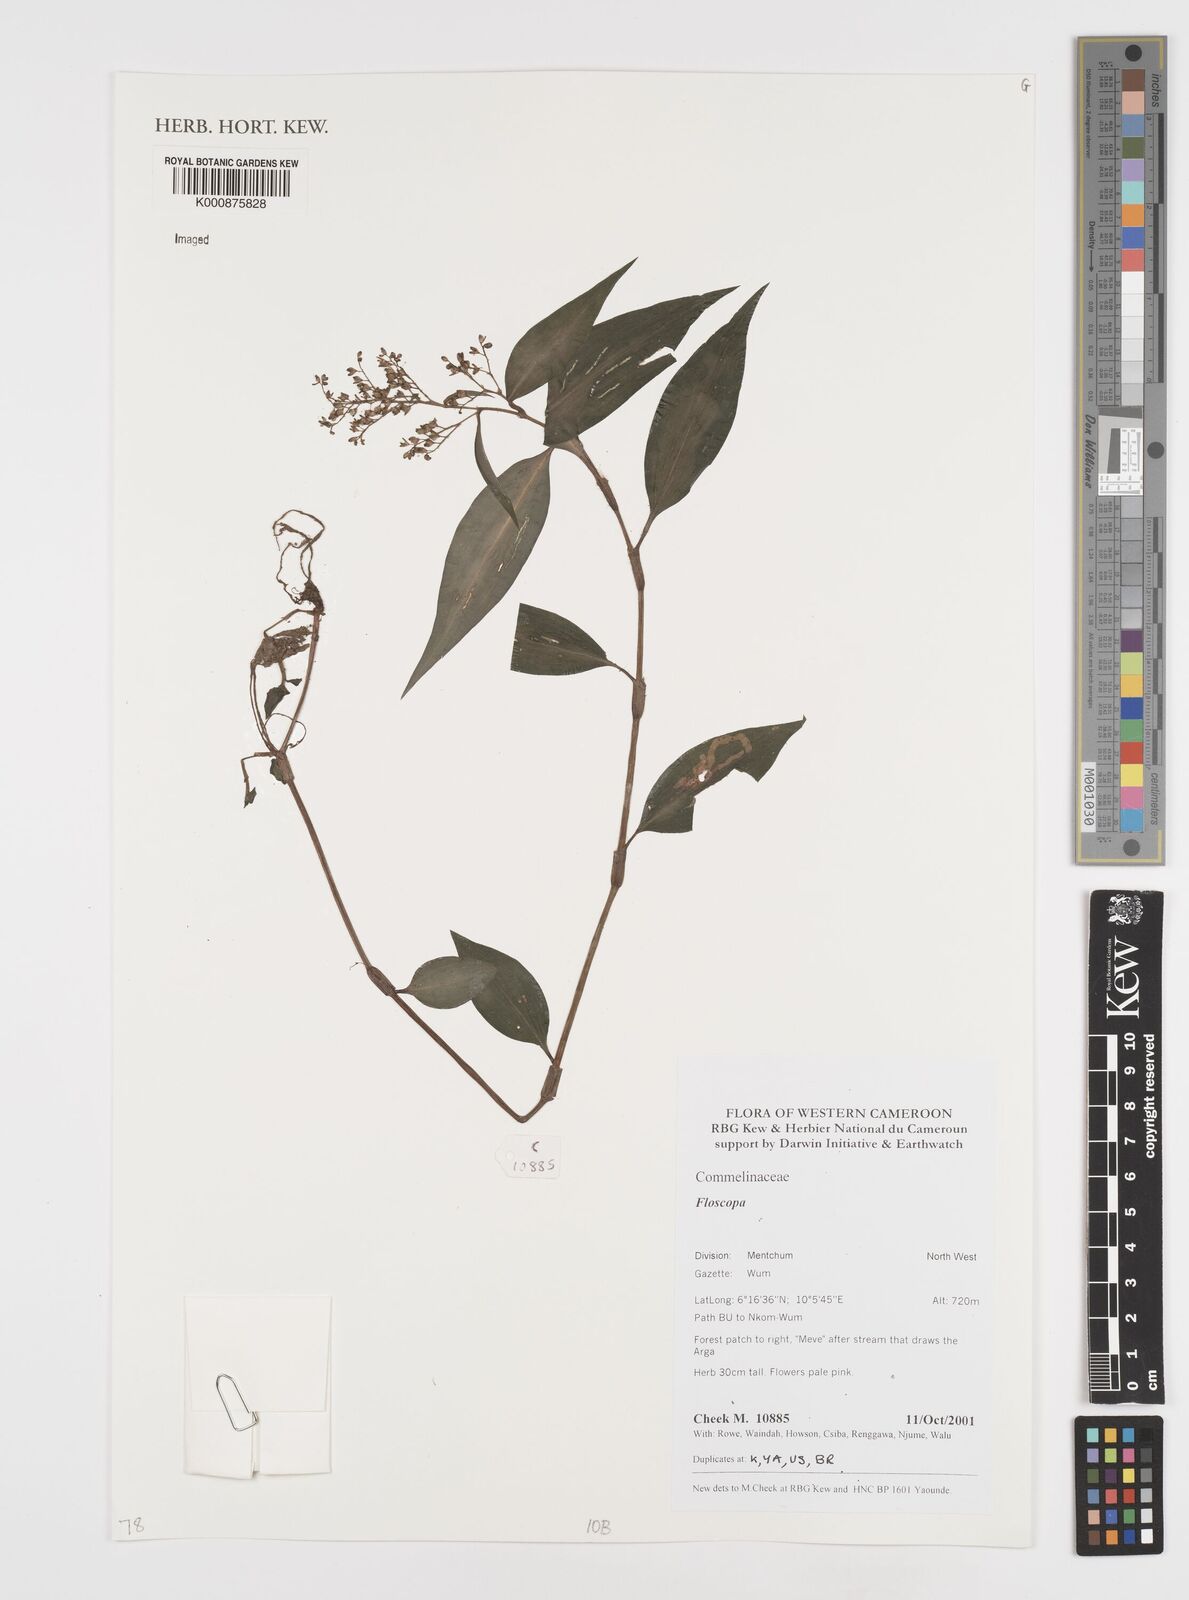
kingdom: Plantae
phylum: Tracheophyta
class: Liliopsida
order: Commelinales
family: Commelinaceae
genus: Floscopa
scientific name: Floscopa
